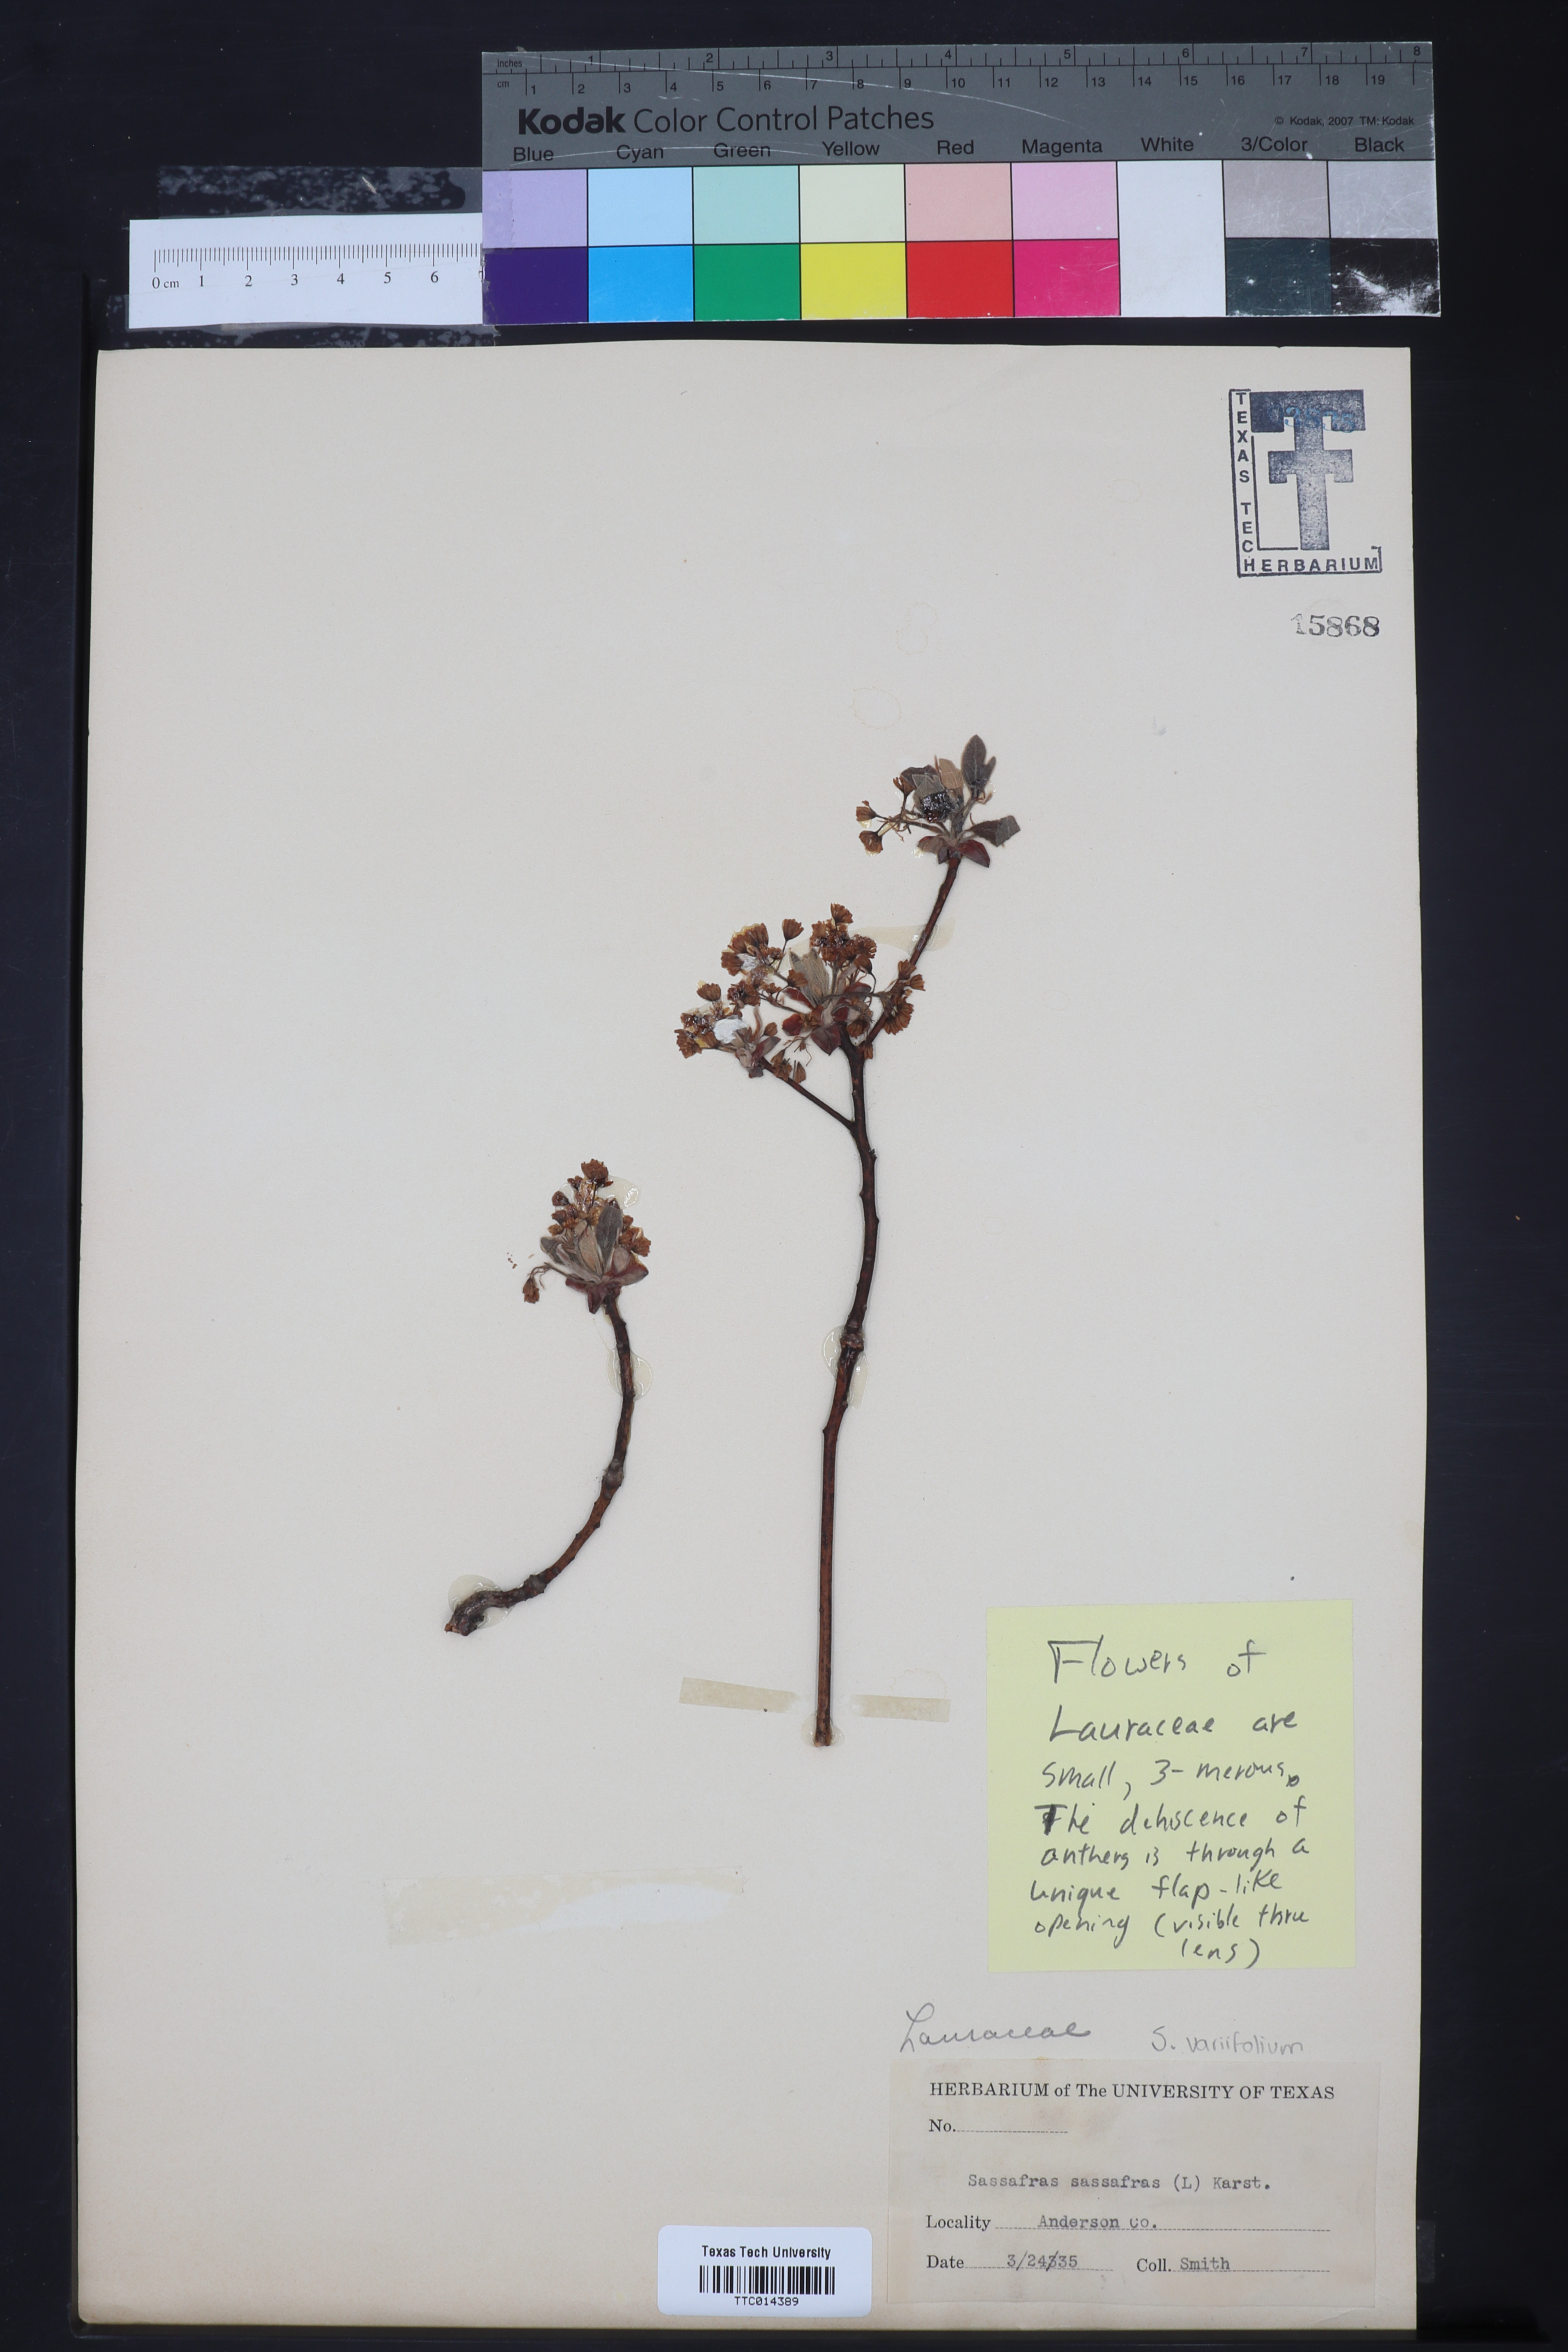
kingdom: Plantae
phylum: Tracheophyta
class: Magnoliopsida
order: Laurales
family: Lauraceae
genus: Sassafras
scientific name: Sassafras albidum
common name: Sassafras
